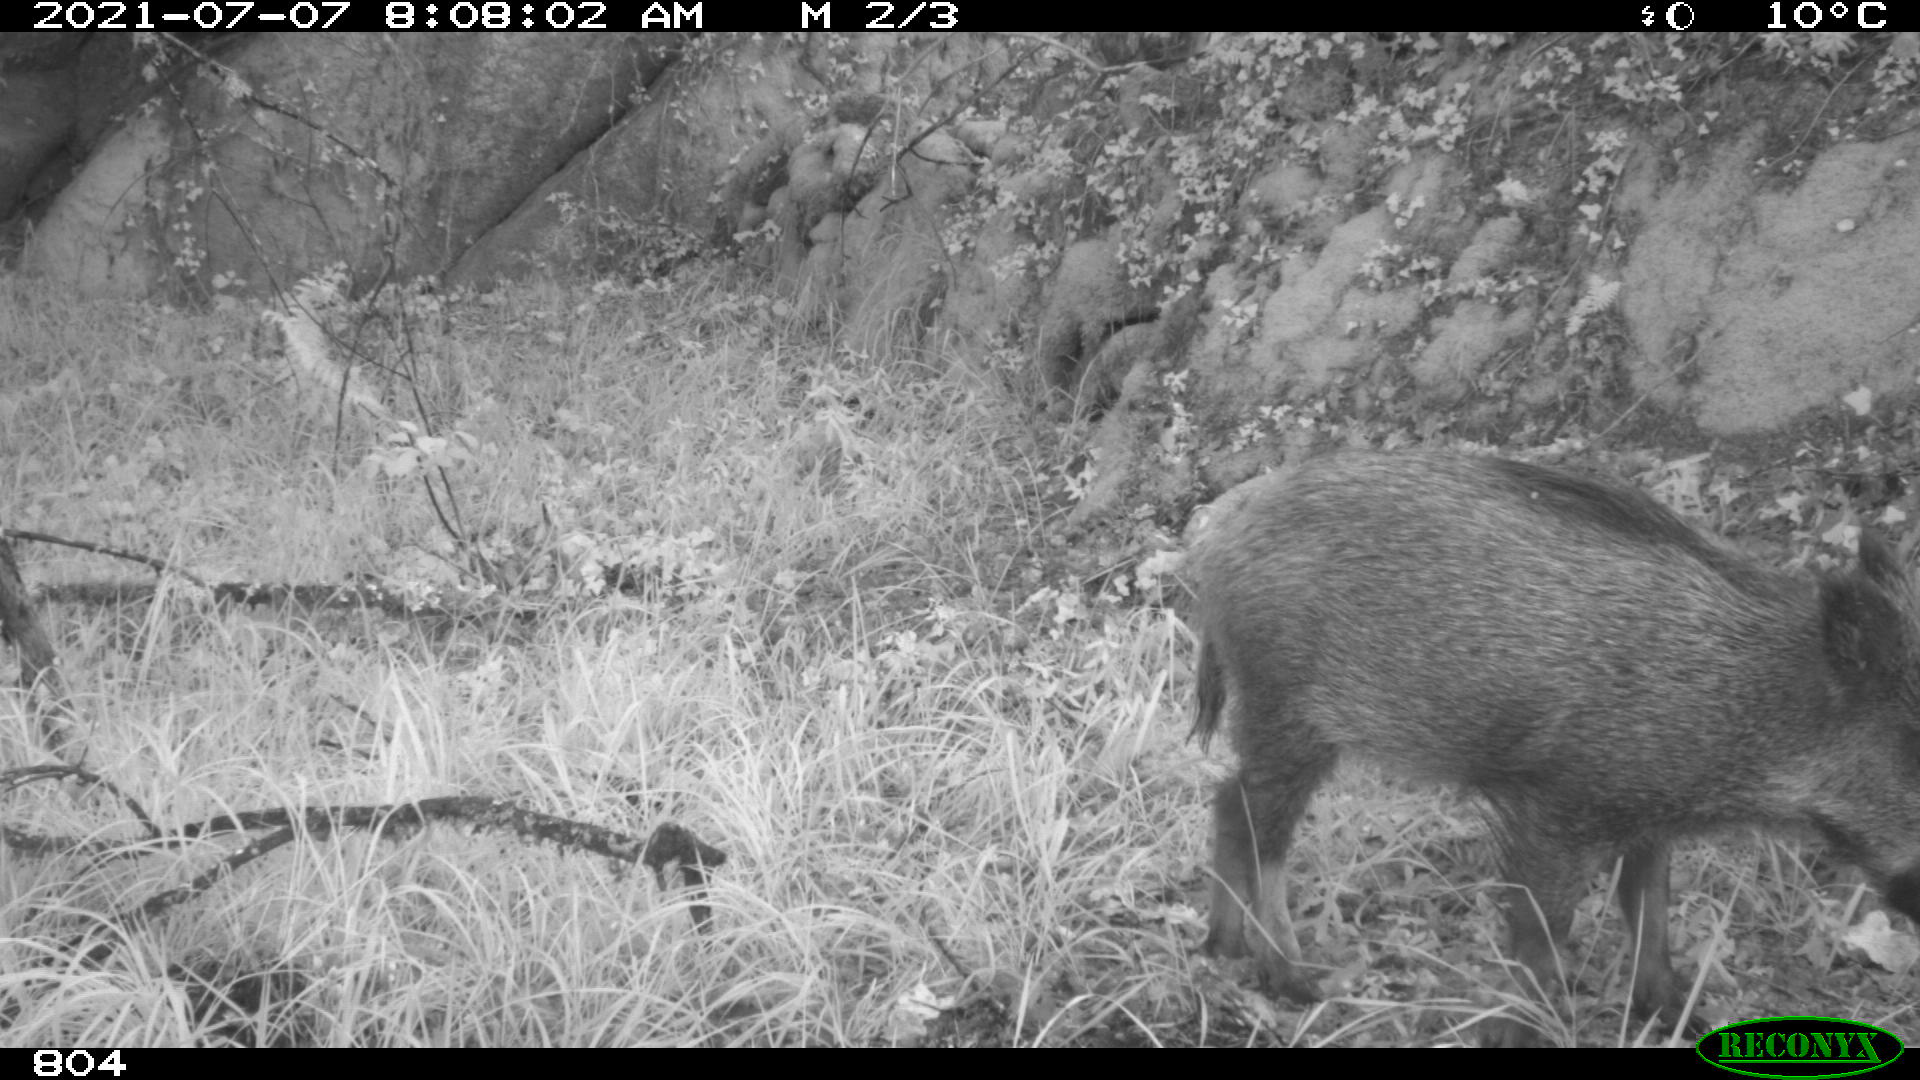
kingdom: Animalia
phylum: Chordata
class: Mammalia
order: Artiodactyla
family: Suidae
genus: Sus
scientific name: Sus scrofa
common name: Wild boar
